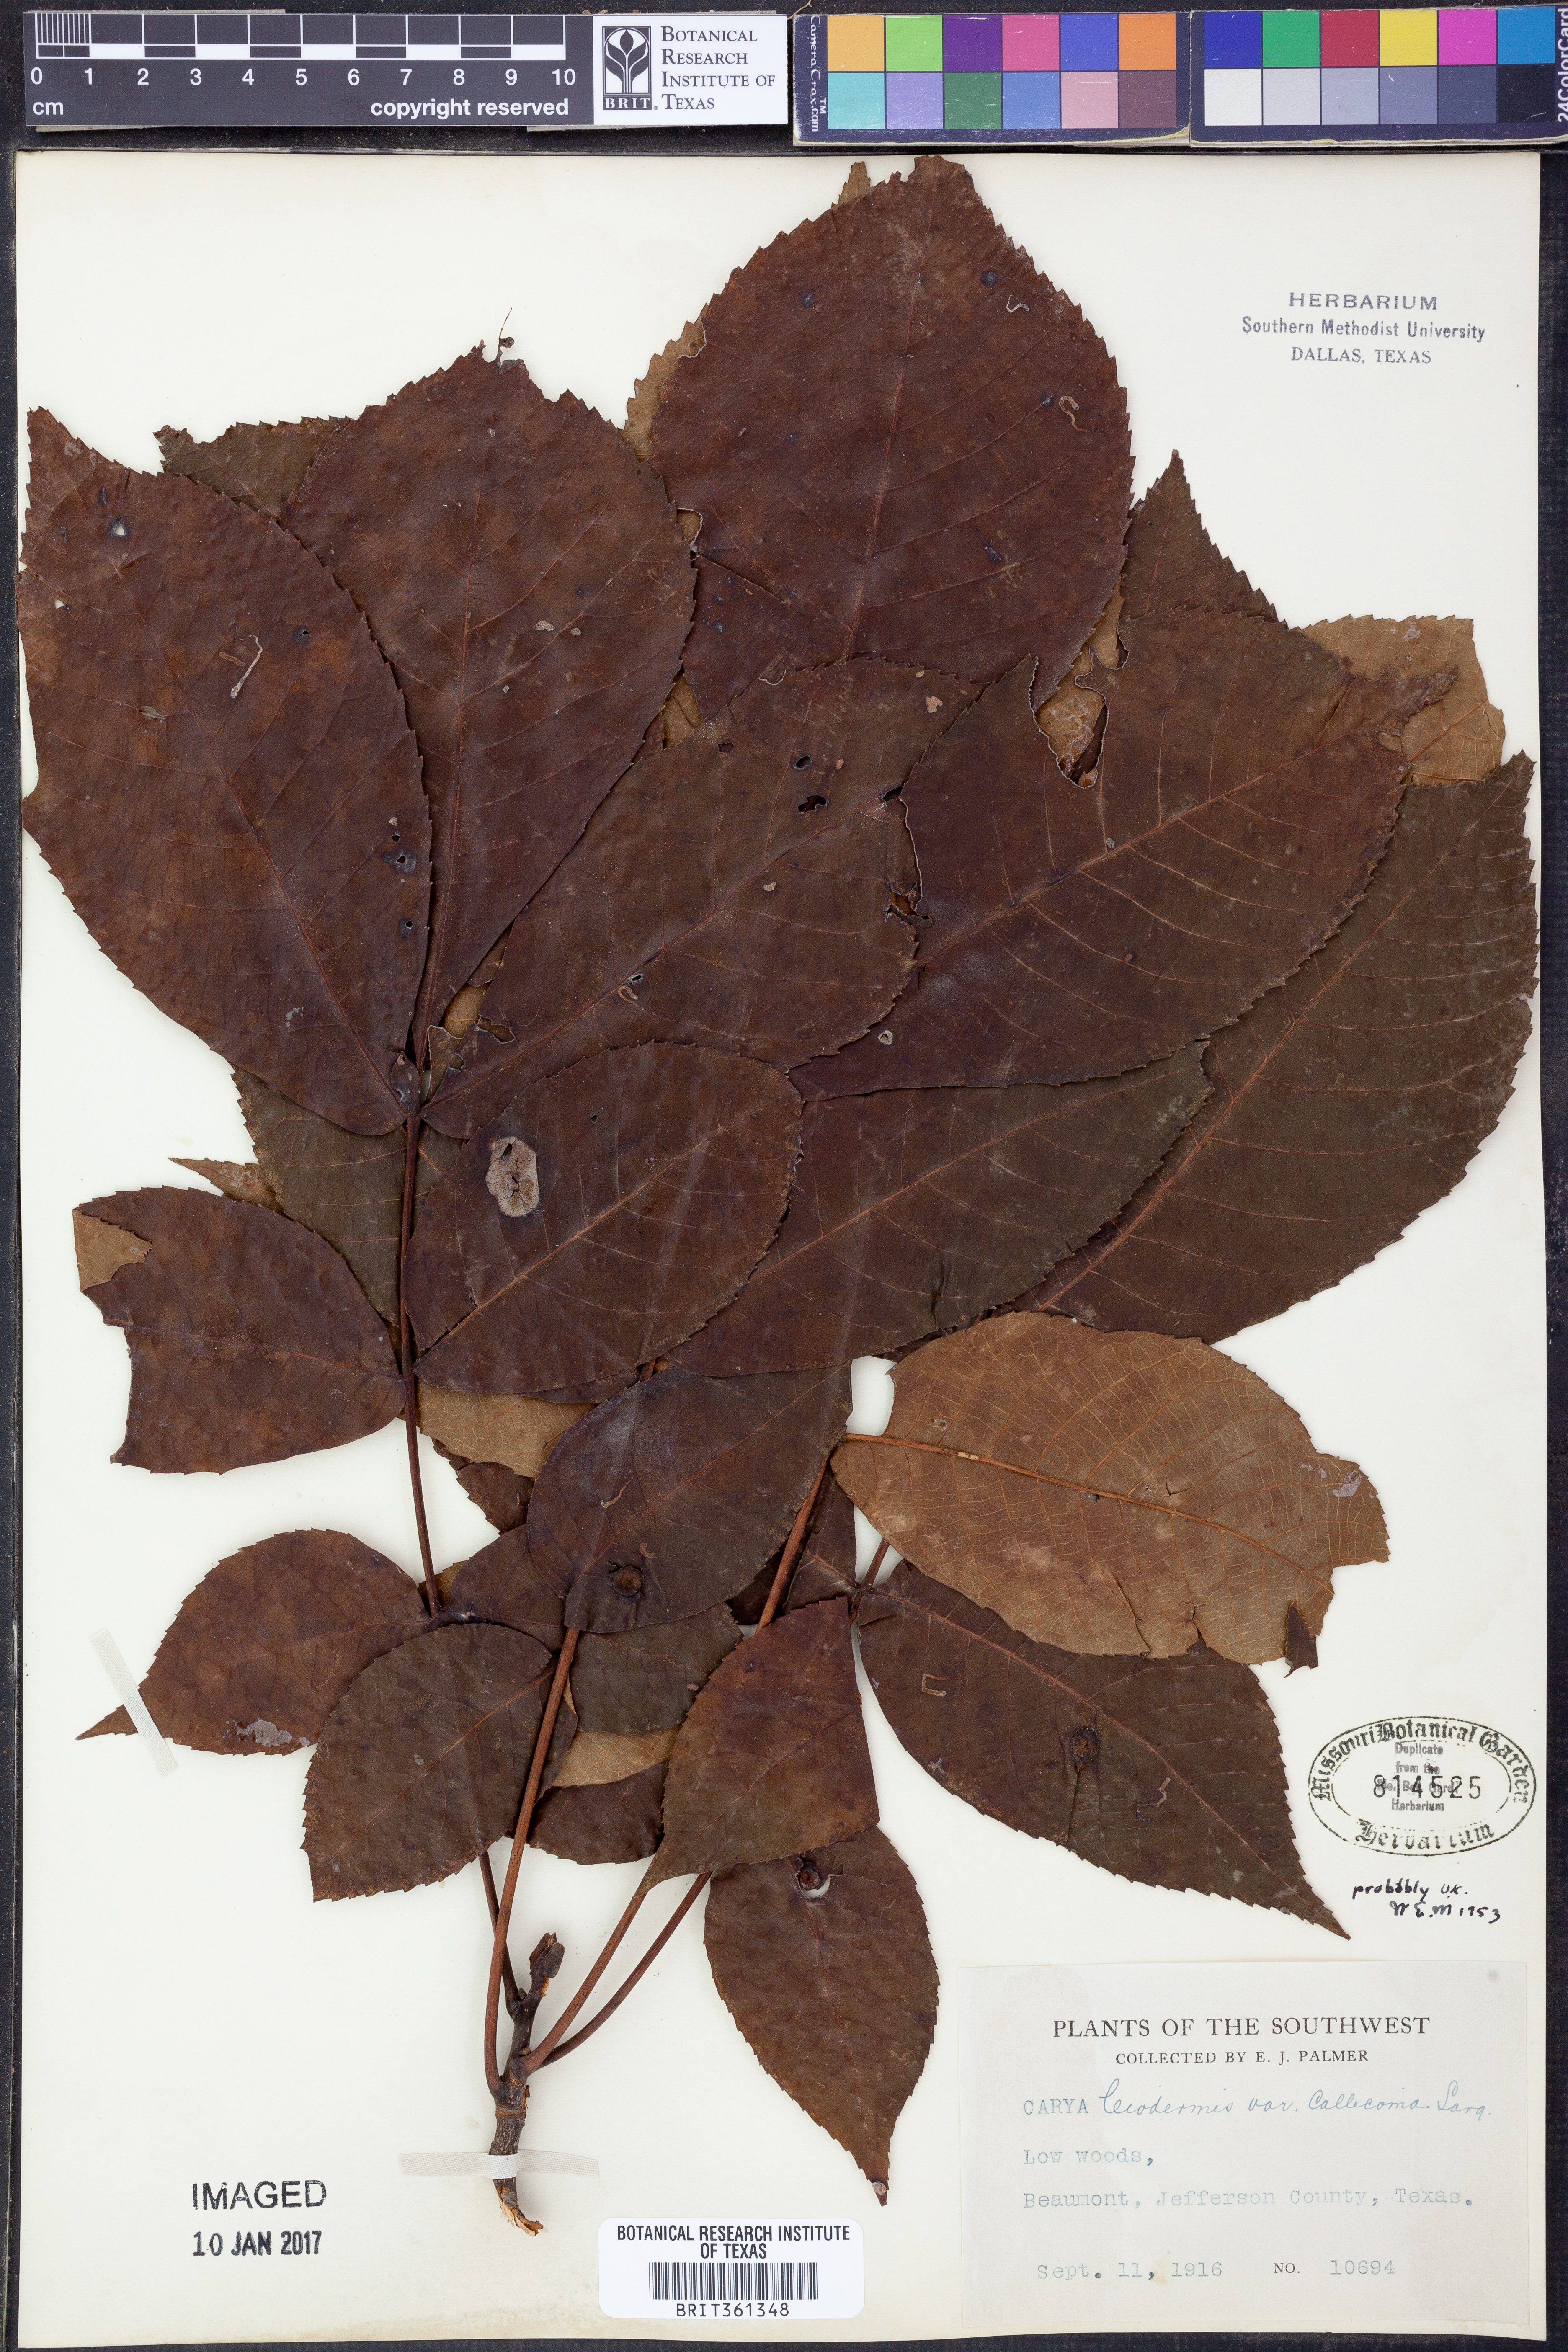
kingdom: Plantae
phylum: Tracheophyta
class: Magnoliopsida
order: Fagales
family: Juglandaceae
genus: Carya
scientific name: Carya glabra
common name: Pignut hickory
